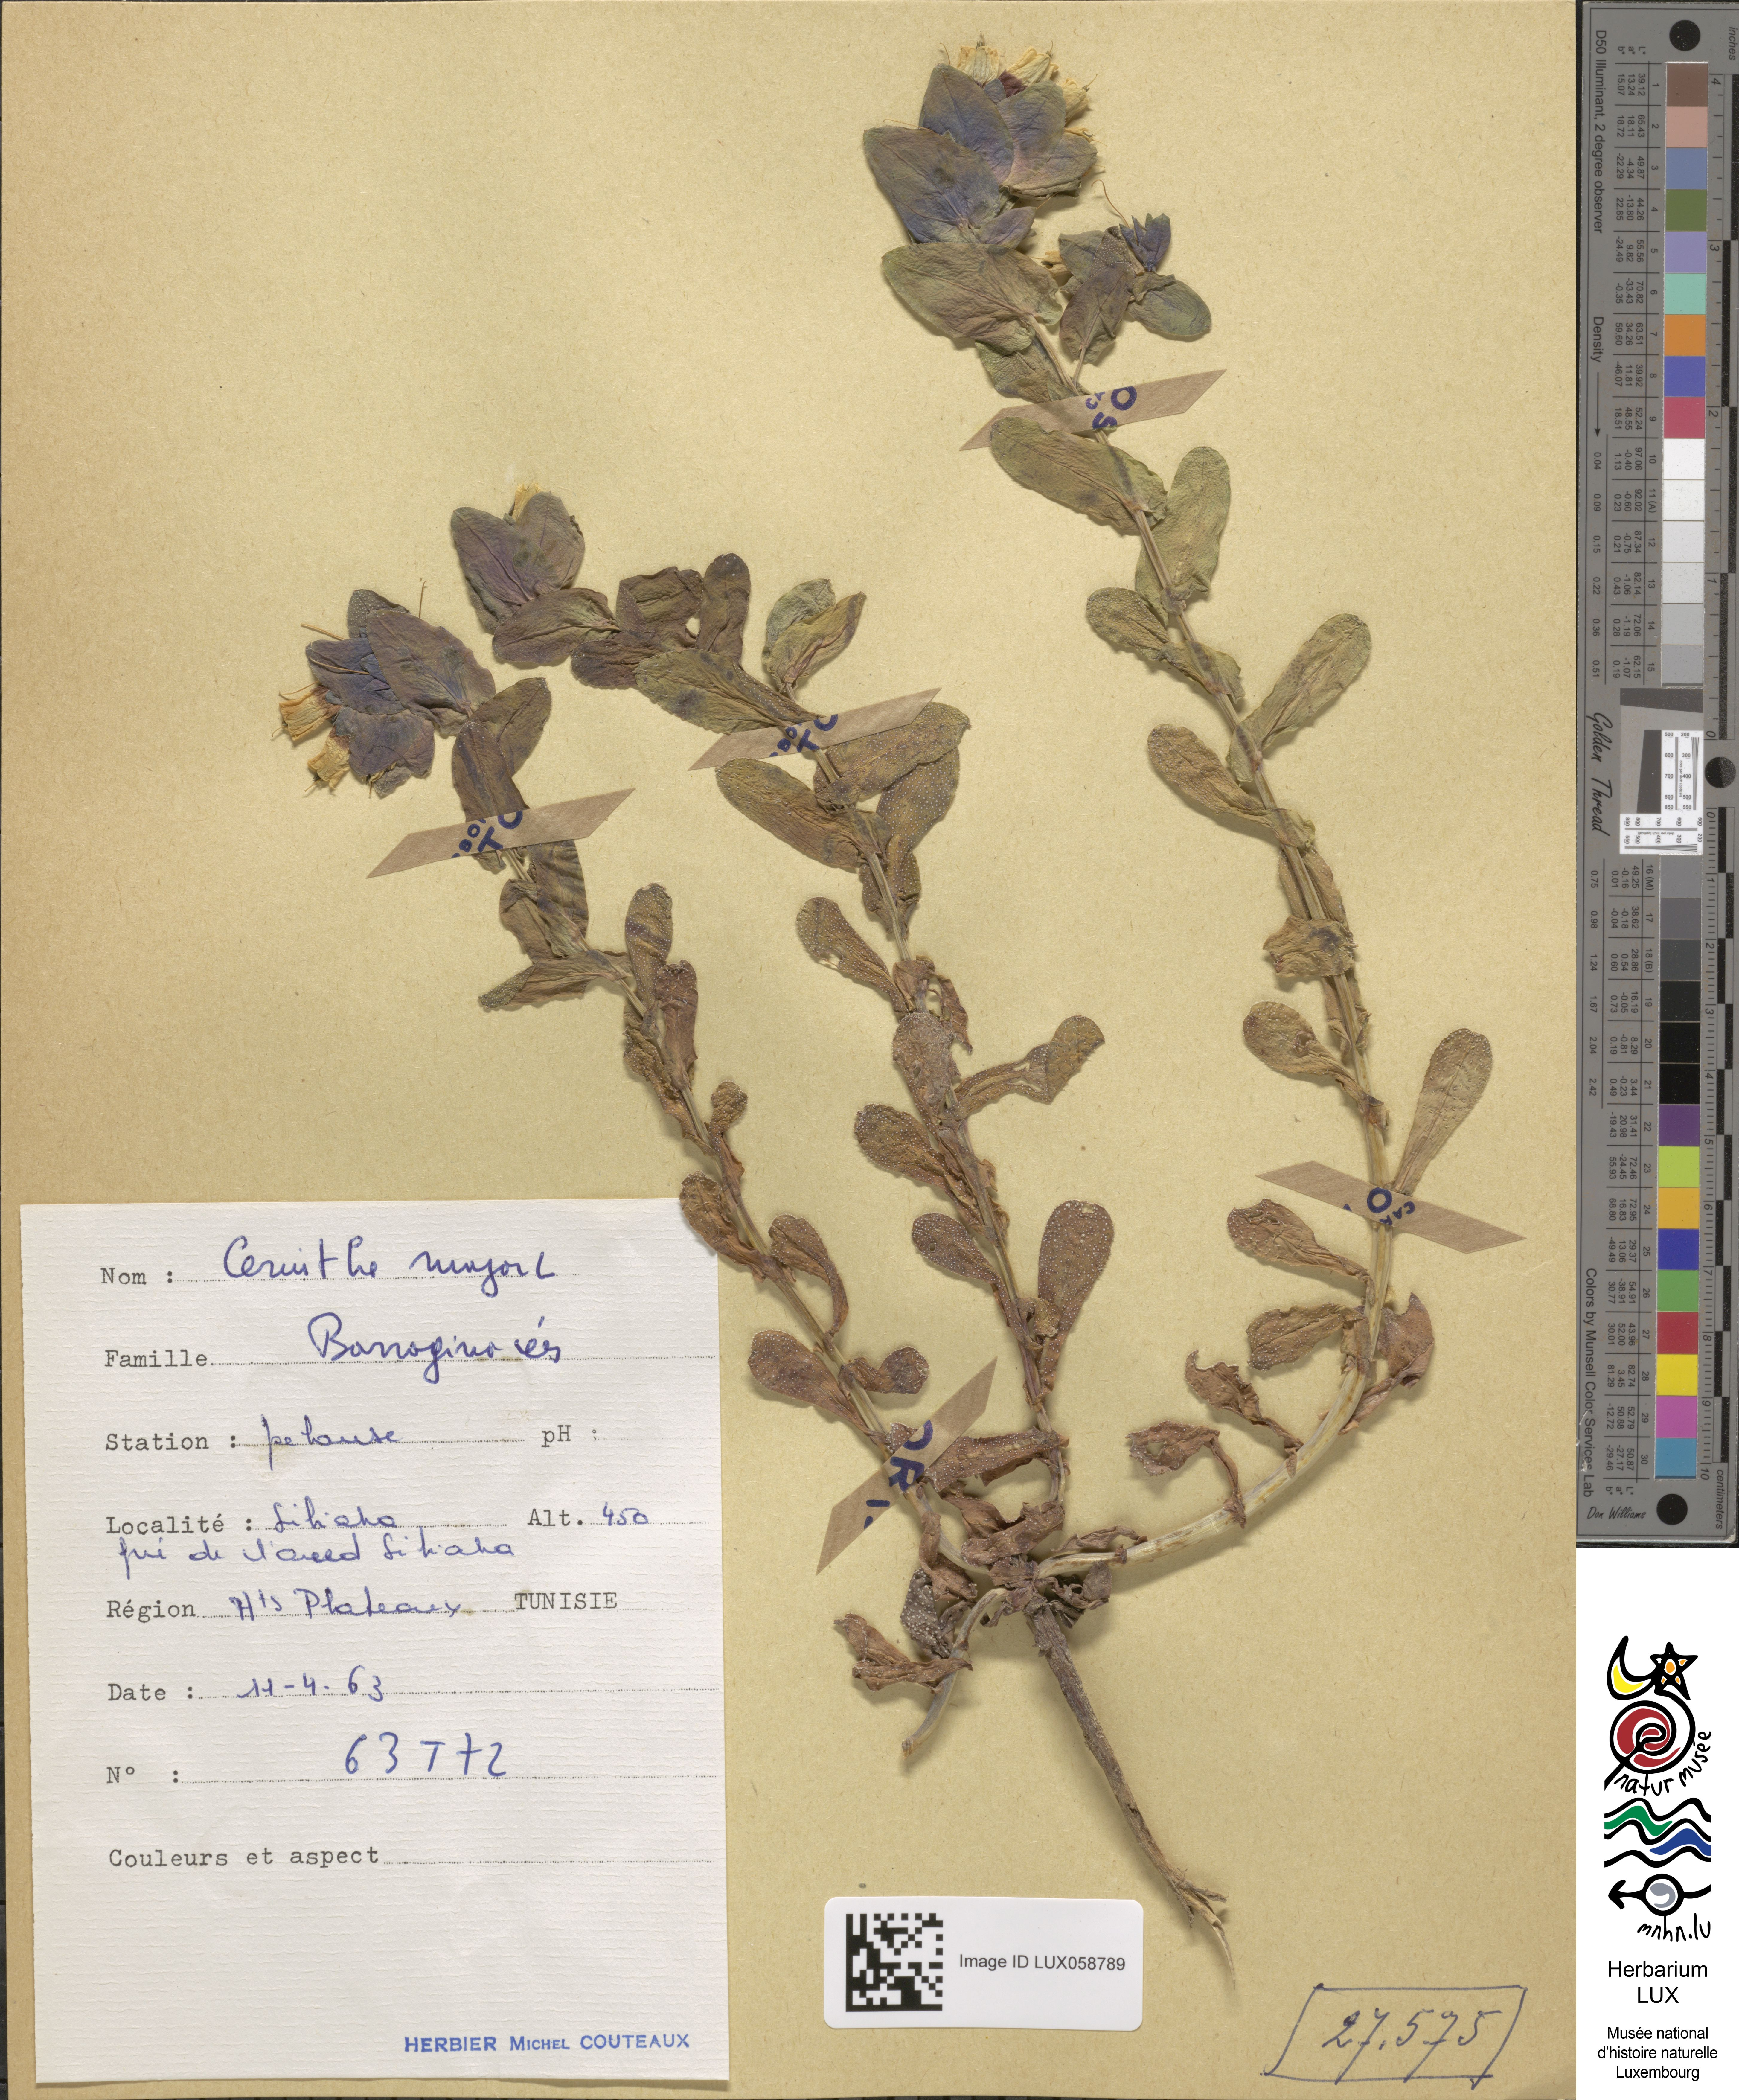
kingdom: Plantae
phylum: Tracheophyta
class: Magnoliopsida
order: Boraginales
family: Boraginaceae
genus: Cerinthe
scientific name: Cerinthe major
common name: Greater honeywort
